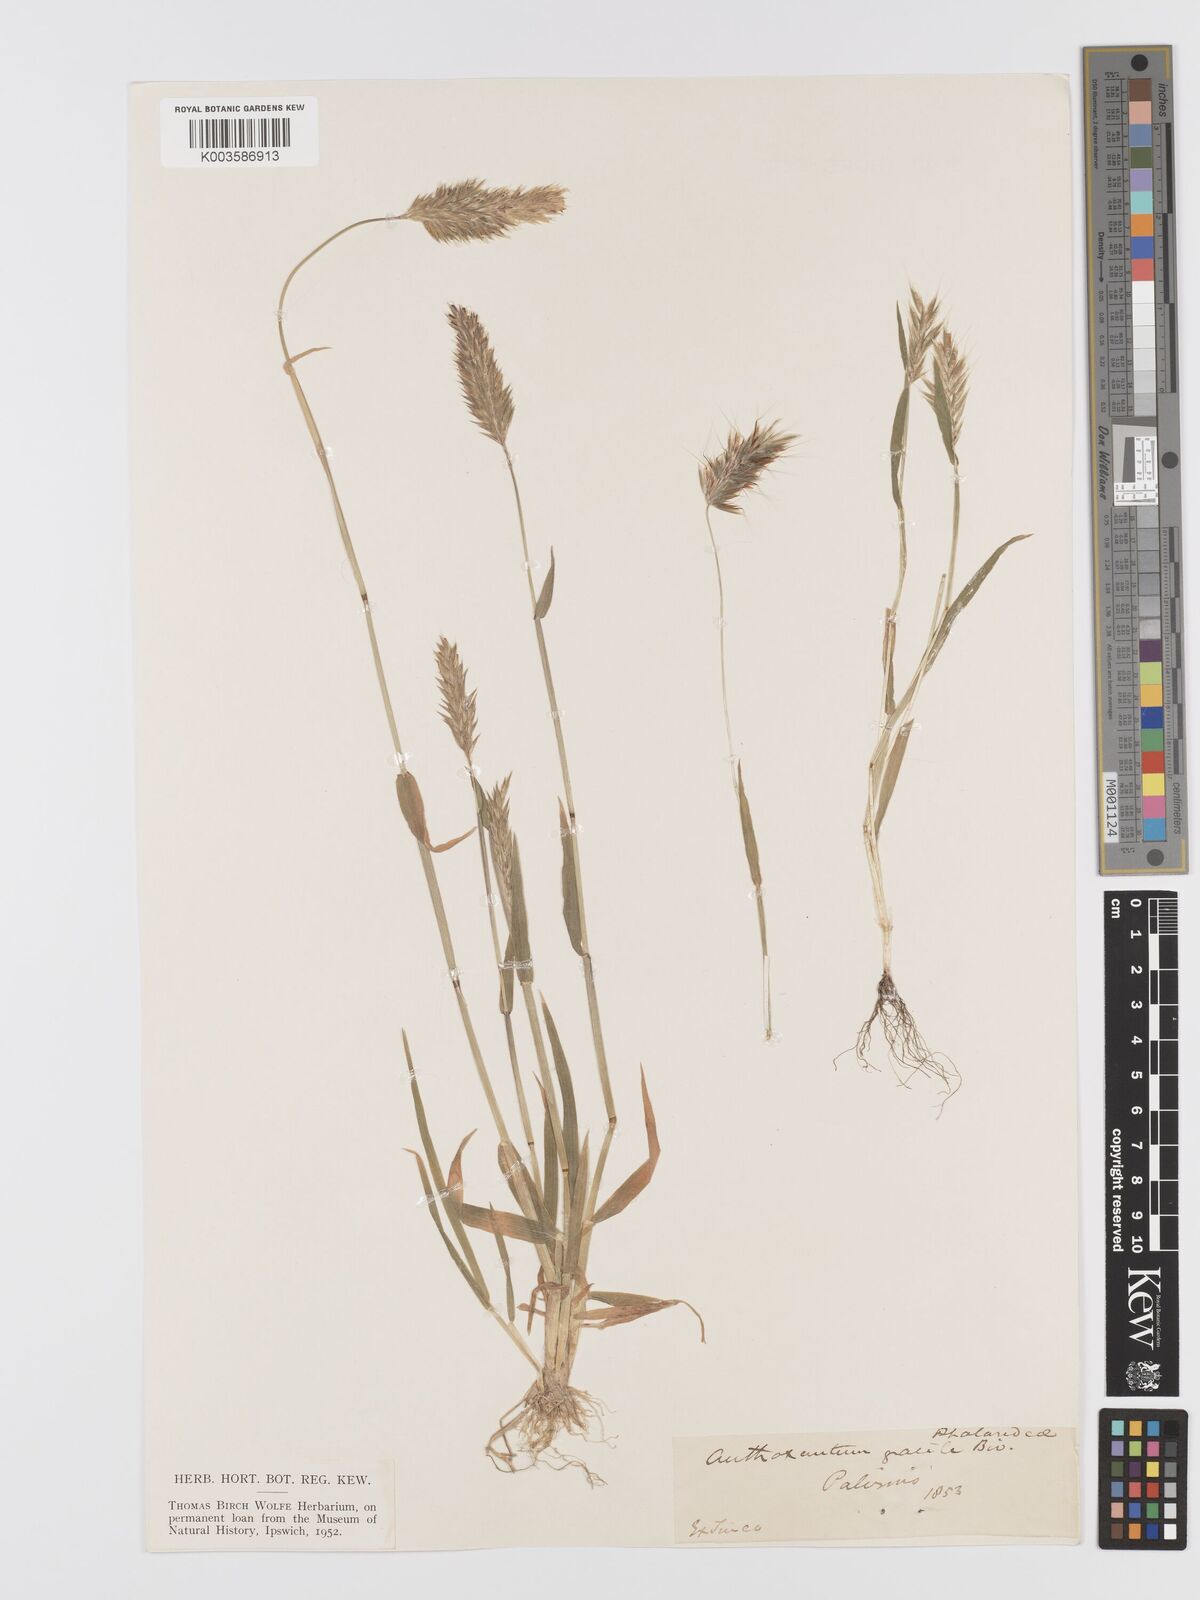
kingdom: Plantae
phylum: Tracheophyta
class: Liliopsida
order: Poales
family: Poaceae
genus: Anthoxanthum
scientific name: Anthoxanthum gracile
